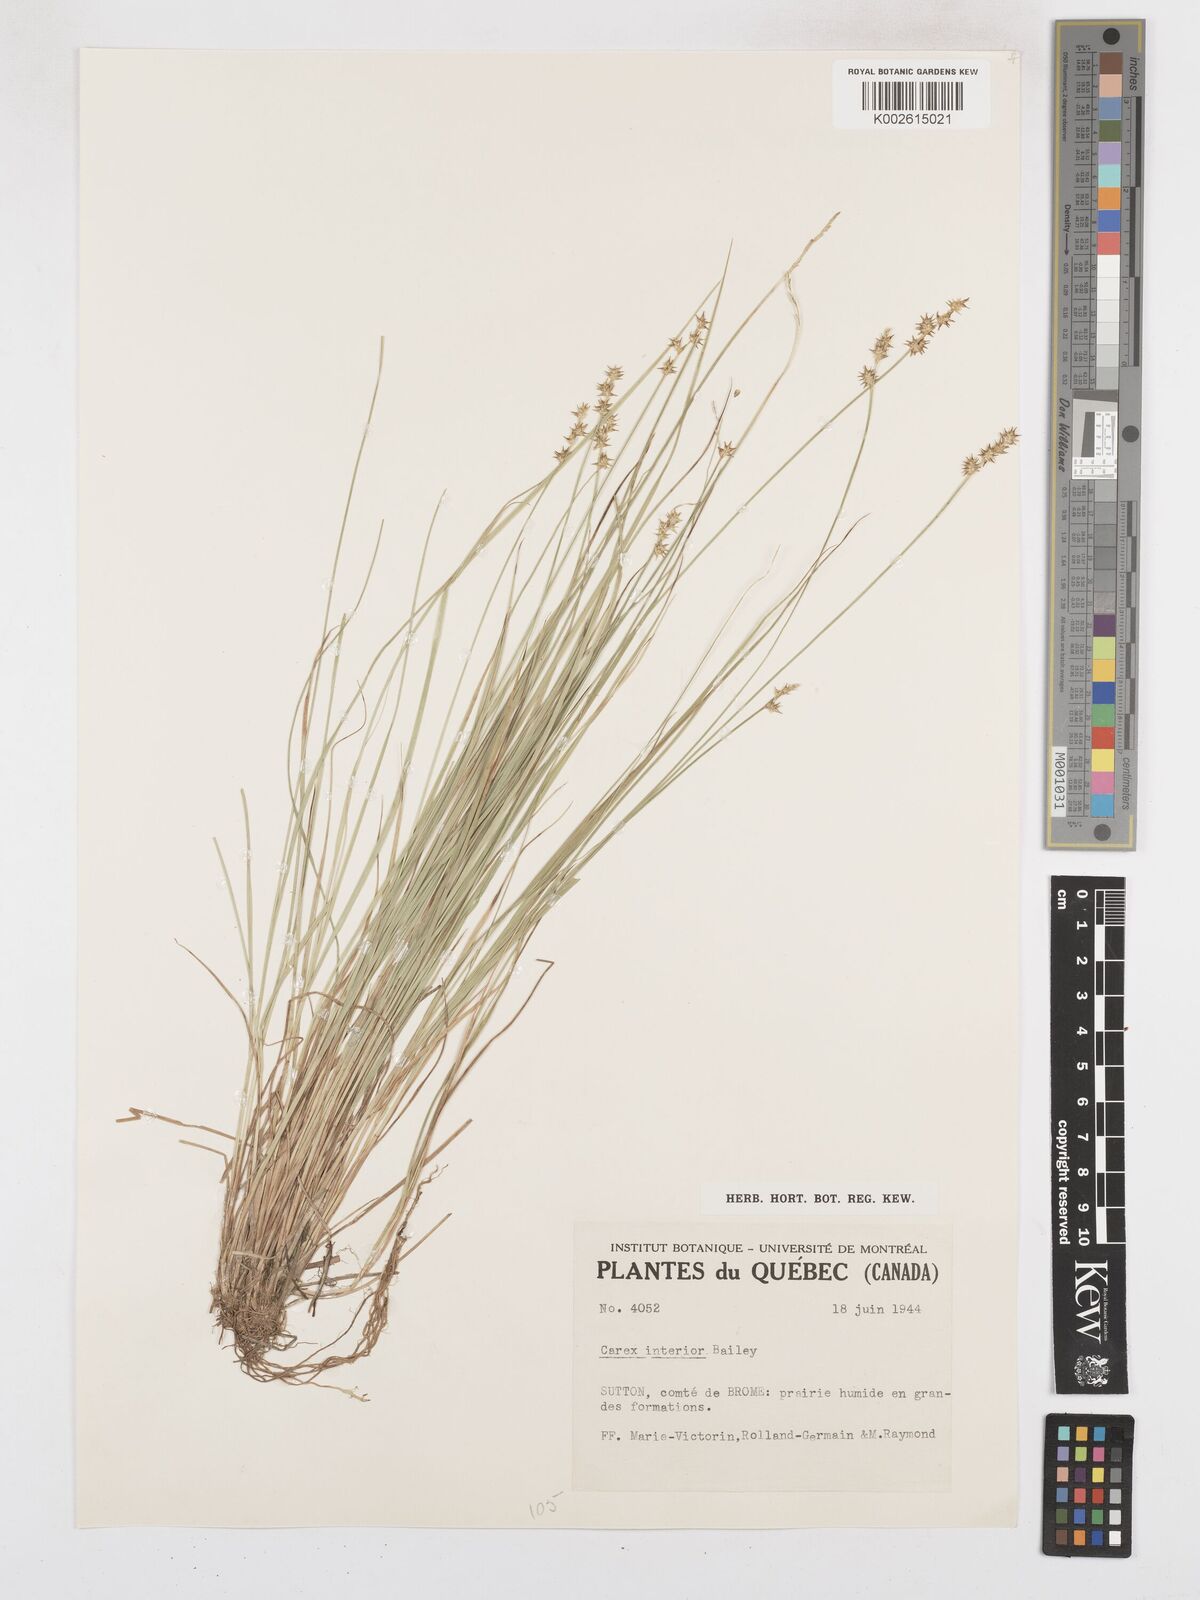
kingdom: Plantae
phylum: Tracheophyta
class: Liliopsida
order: Poales
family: Cyperaceae
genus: Carex
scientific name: Carex interior
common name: Inland sedge
